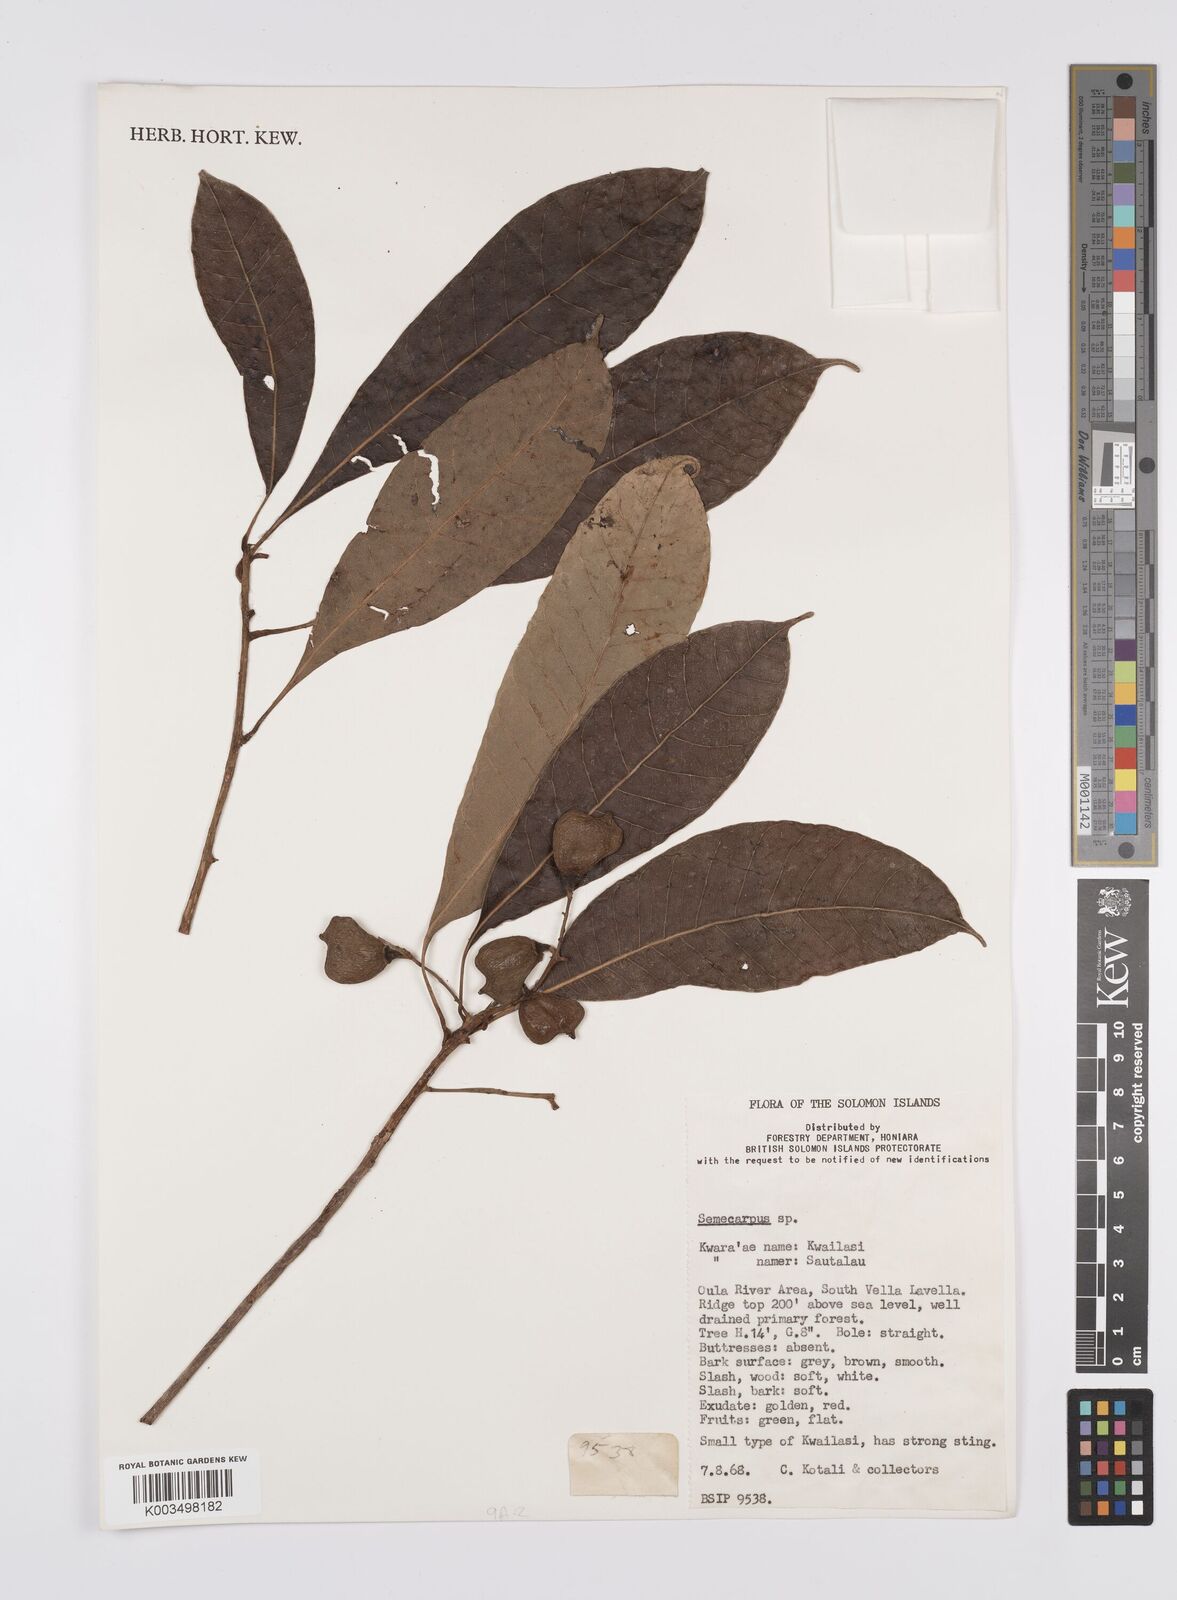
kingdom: Plantae
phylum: Tracheophyta
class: Magnoliopsida
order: Sapindales
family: Anacardiaceae
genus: Semecarpus
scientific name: Semecarpus
